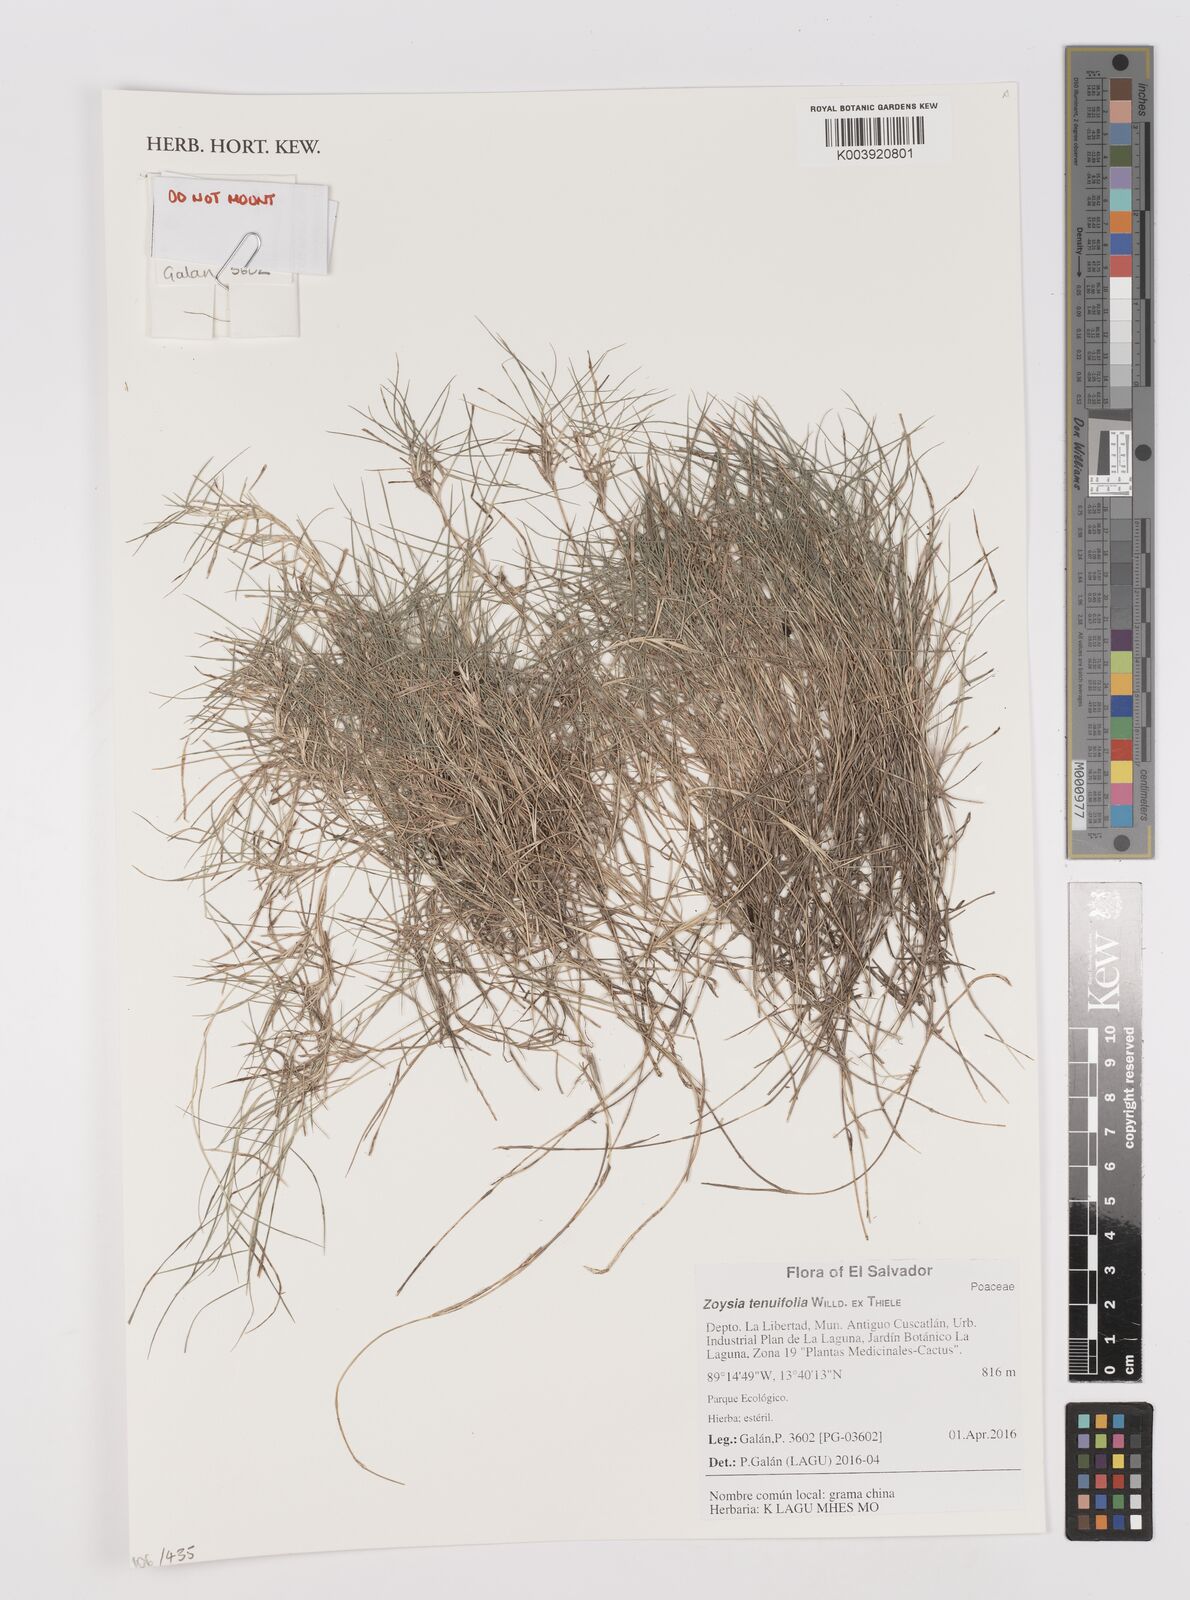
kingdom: Plantae
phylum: Tracheophyta
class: Liliopsida
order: Poales
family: Poaceae
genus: Zoysia
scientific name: Zoysia matrella
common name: Manila grass
